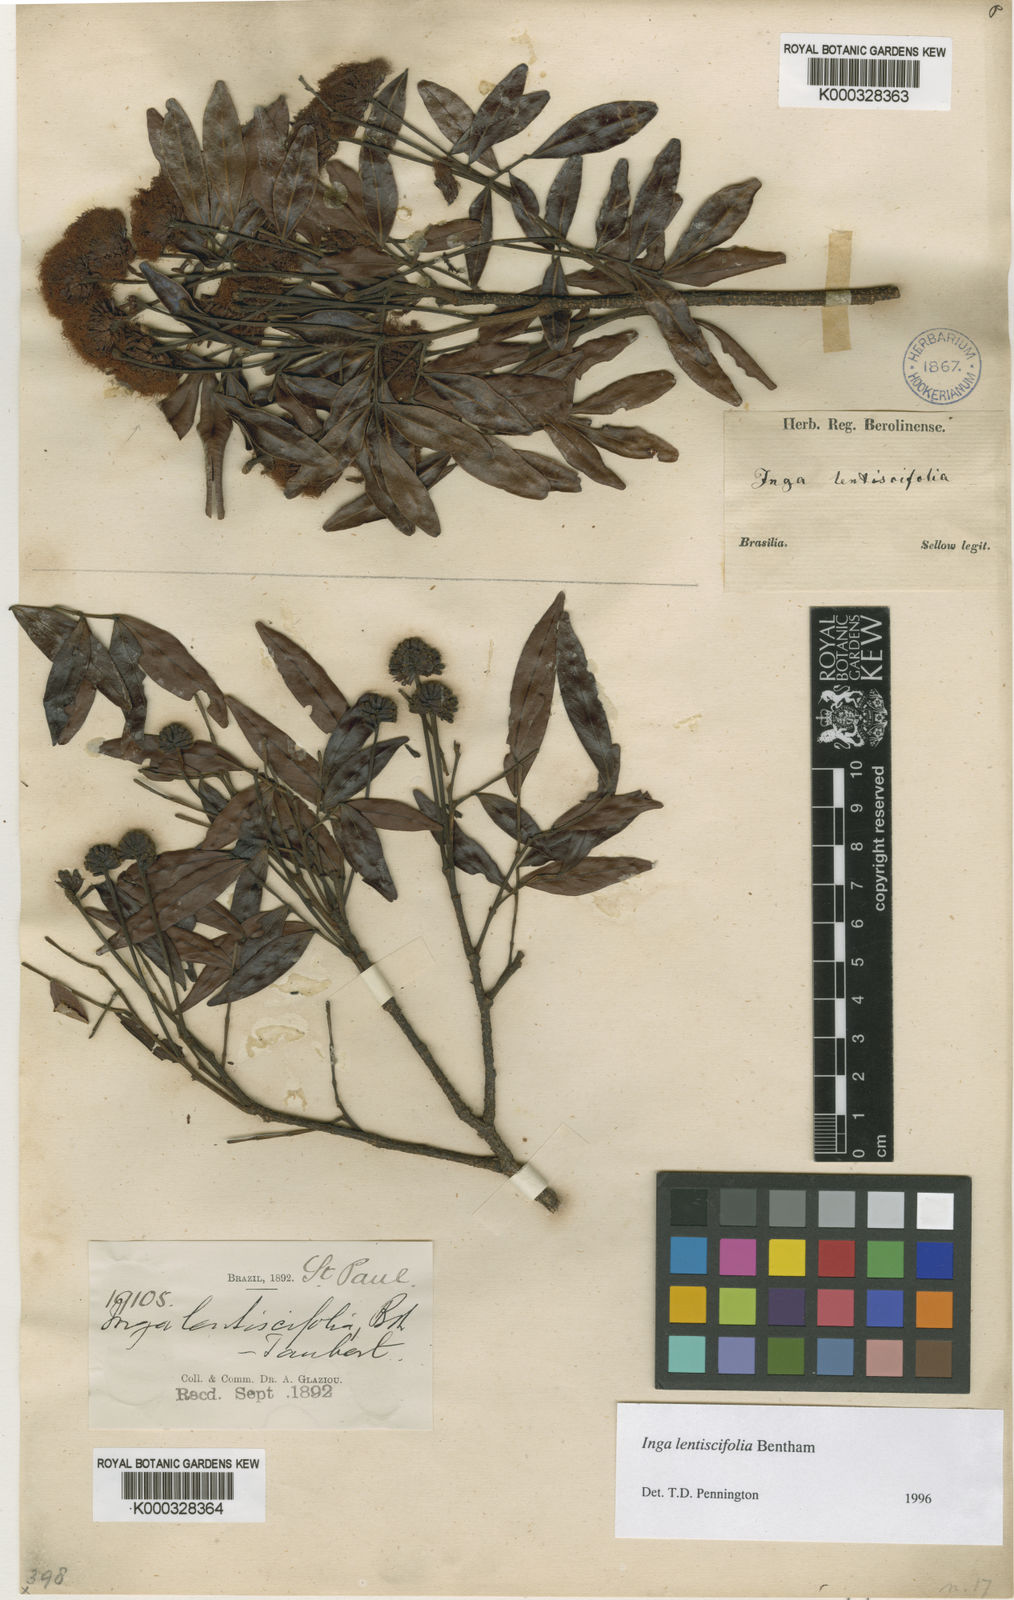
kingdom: Plantae
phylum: Tracheophyta
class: Magnoliopsida
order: Fabales
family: Fabaceae
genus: Inga
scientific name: Inga lentiscifolia
